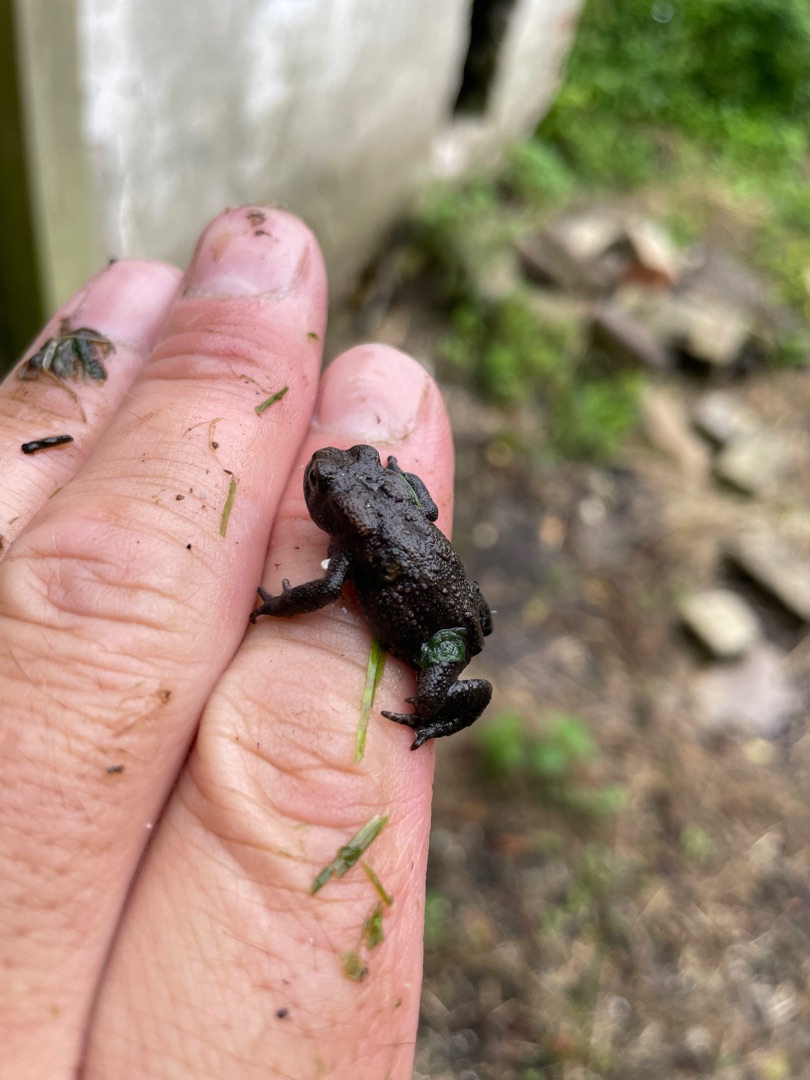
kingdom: Animalia
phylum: Chordata
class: Amphibia
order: Anura
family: Bufonidae
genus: Bufo
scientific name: Bufo bufo
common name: Skrubtudse
